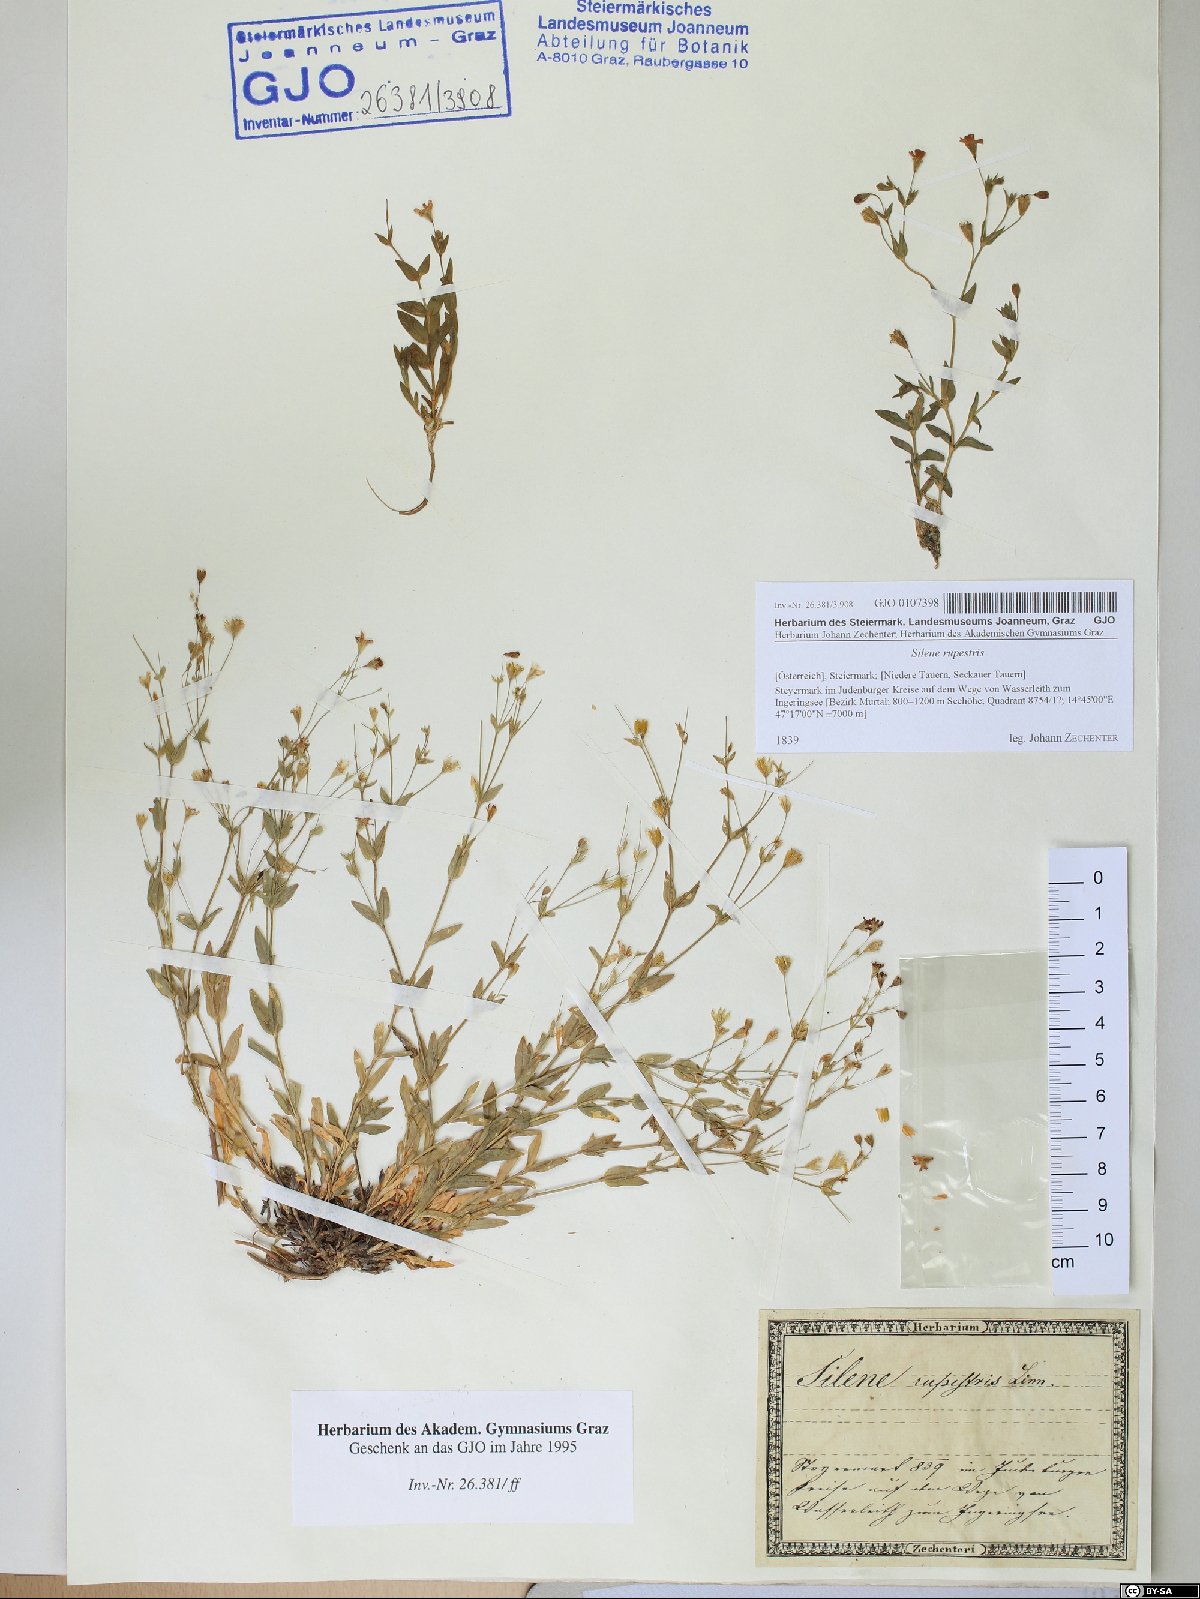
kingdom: Plantae
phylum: Tracheophyta
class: Magnoliopsida
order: Caryophyllales
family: Caryophyllaceae
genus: Atocion
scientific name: Atocion rupestre
